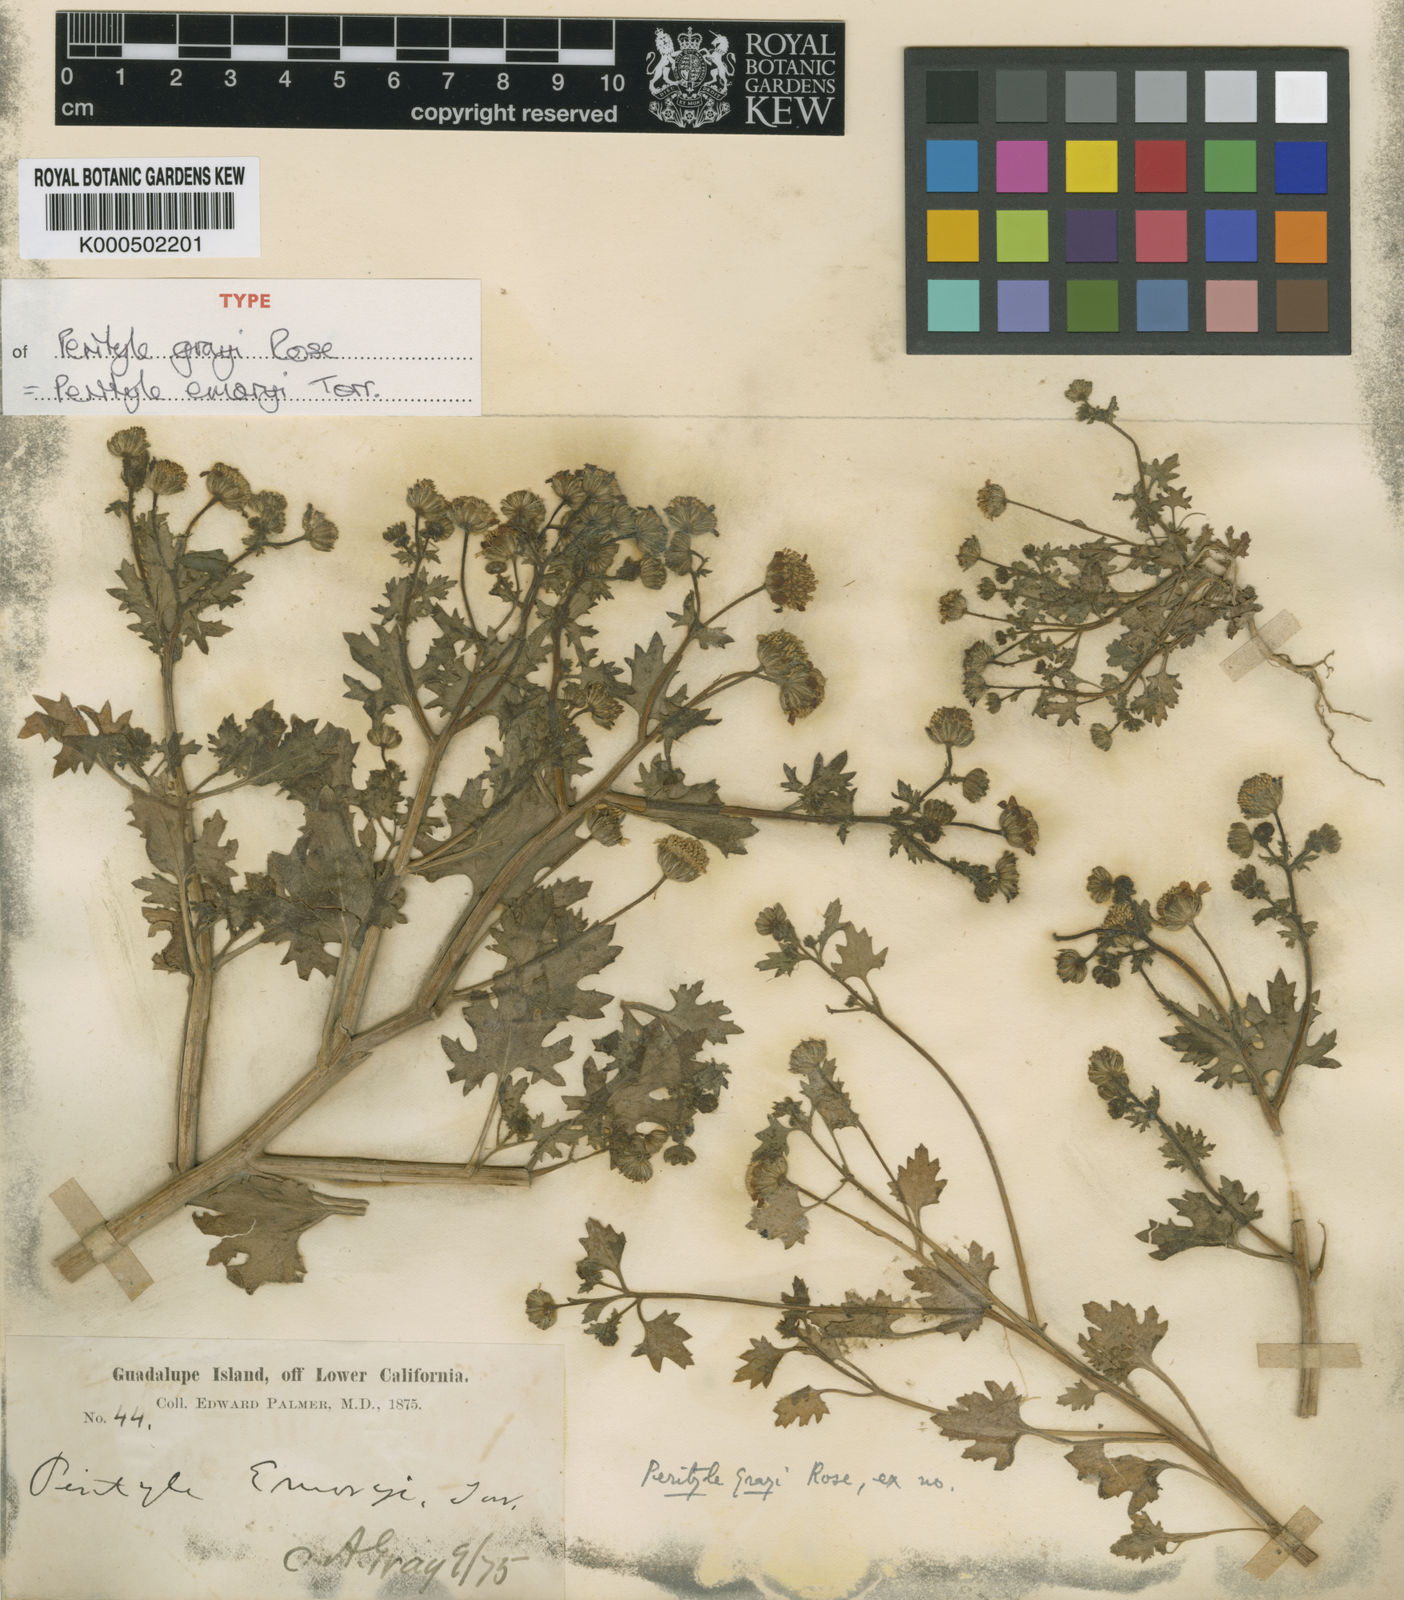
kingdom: Plantae
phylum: Tracheophyta
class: Magnoliopsida
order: Asterales
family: Asteraceae
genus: Laphamia
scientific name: Laphamia emoryi
